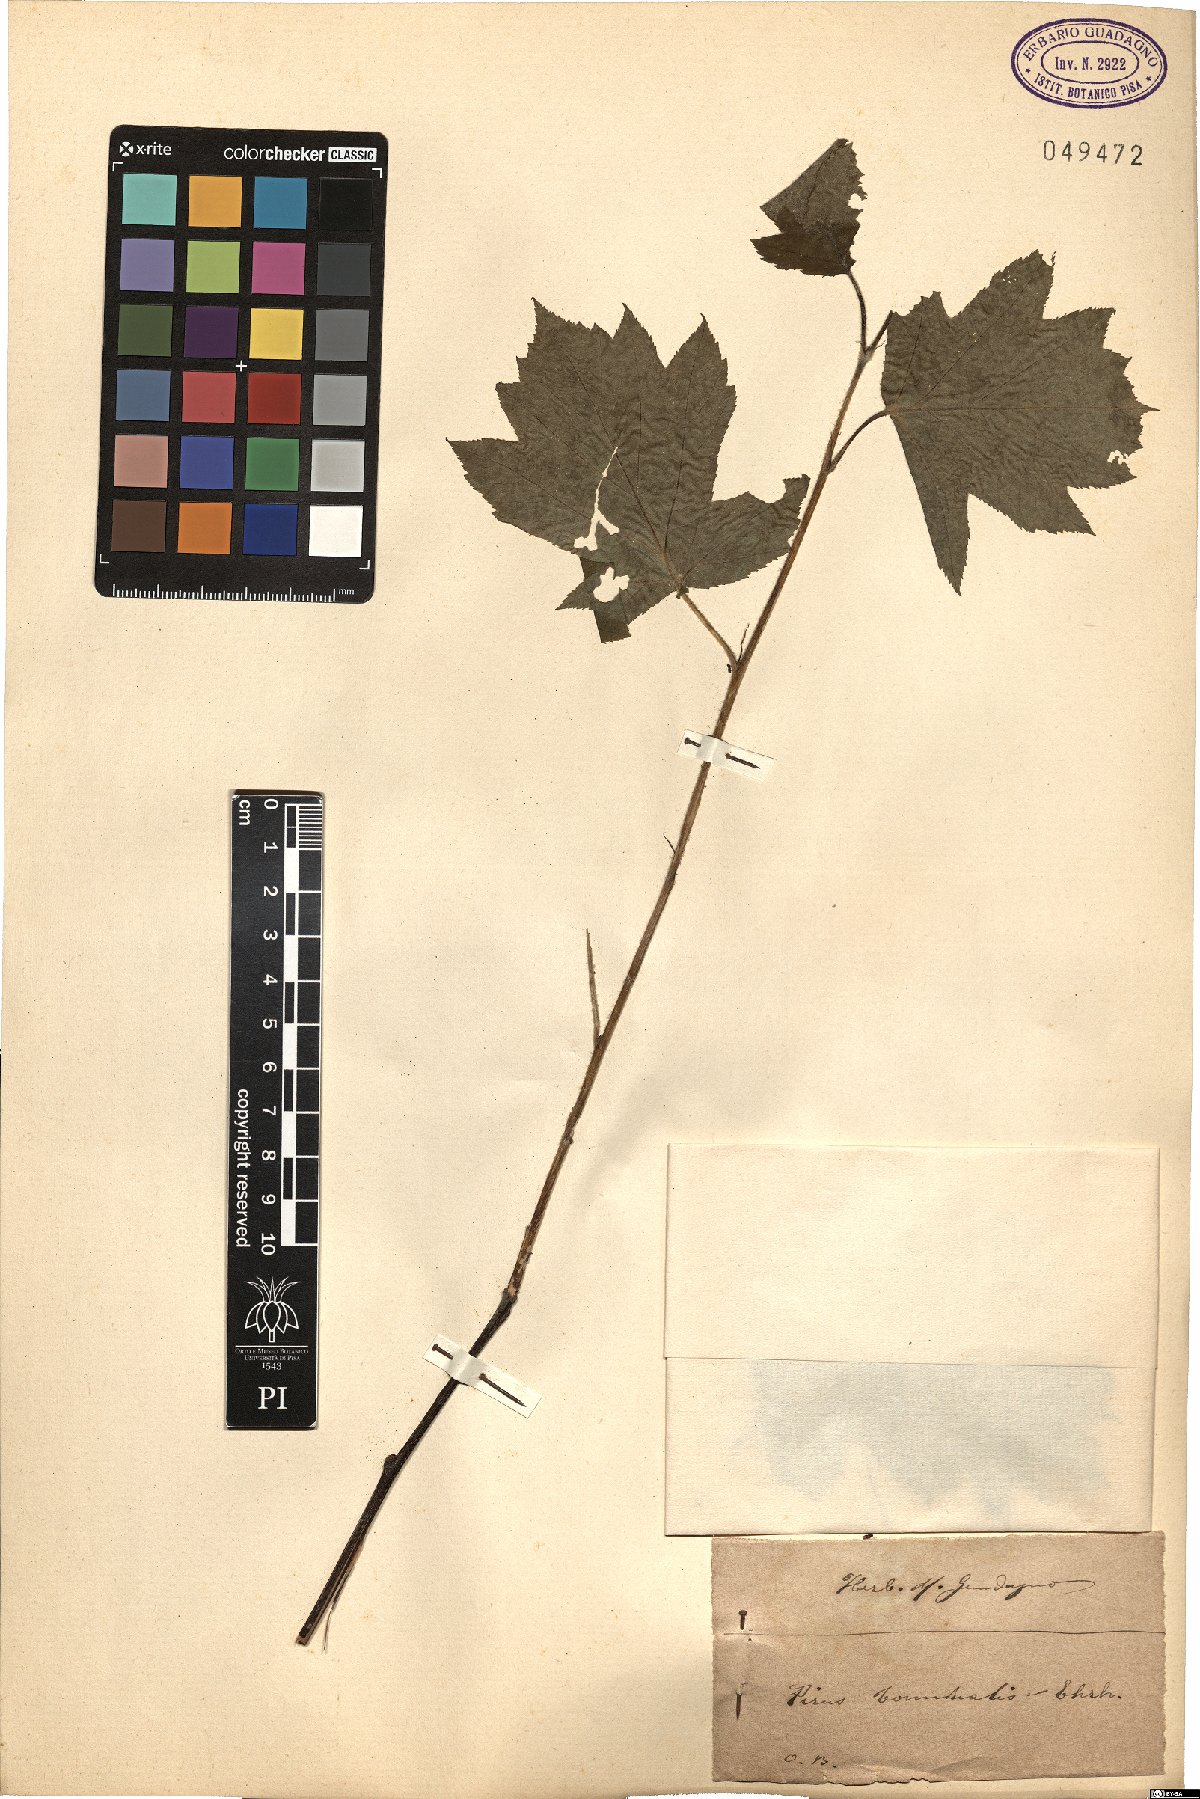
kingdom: Plantae
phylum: Tracheophyta
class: Magnoliopsida
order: Rosales
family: Rosaceae
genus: Torminalis
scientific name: Torminalis glaberrima
